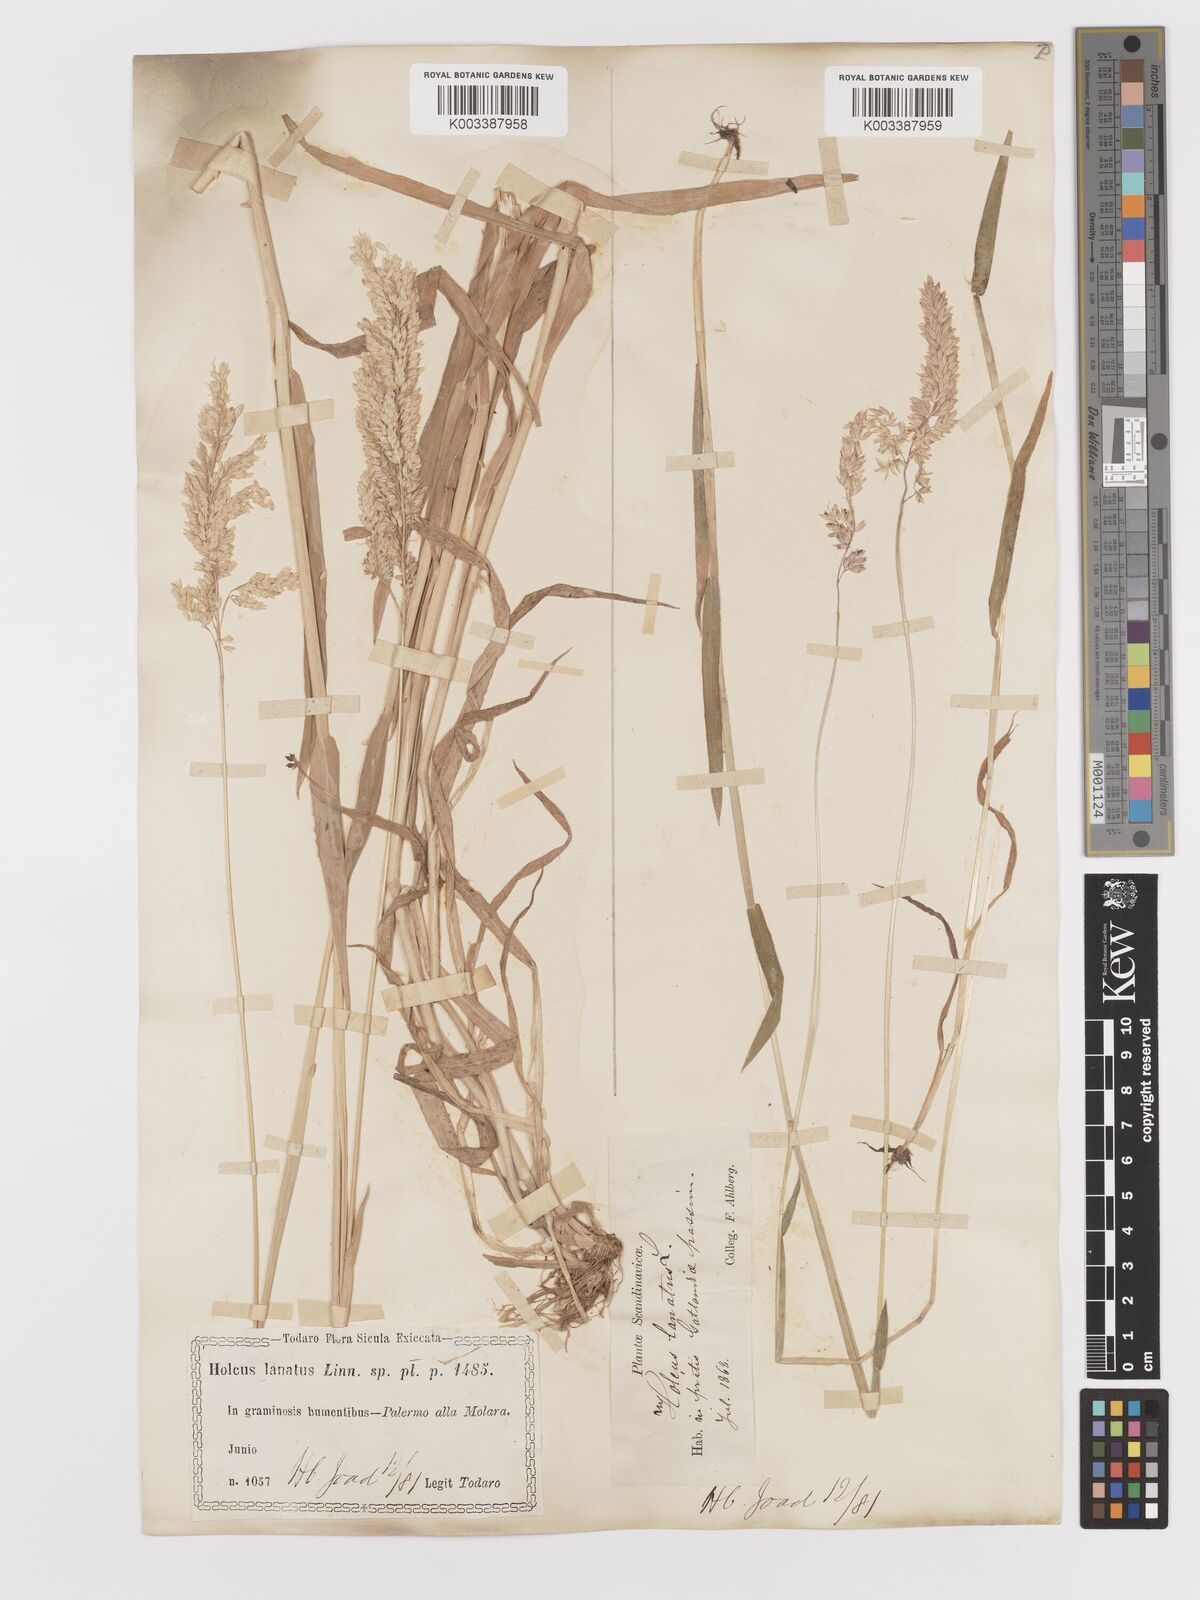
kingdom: Plantae
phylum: Tracheophyta
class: Liliopsida
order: Poales
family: Poaceae
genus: Holcus
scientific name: Holcus lanatus
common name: Yorkshire-fog
